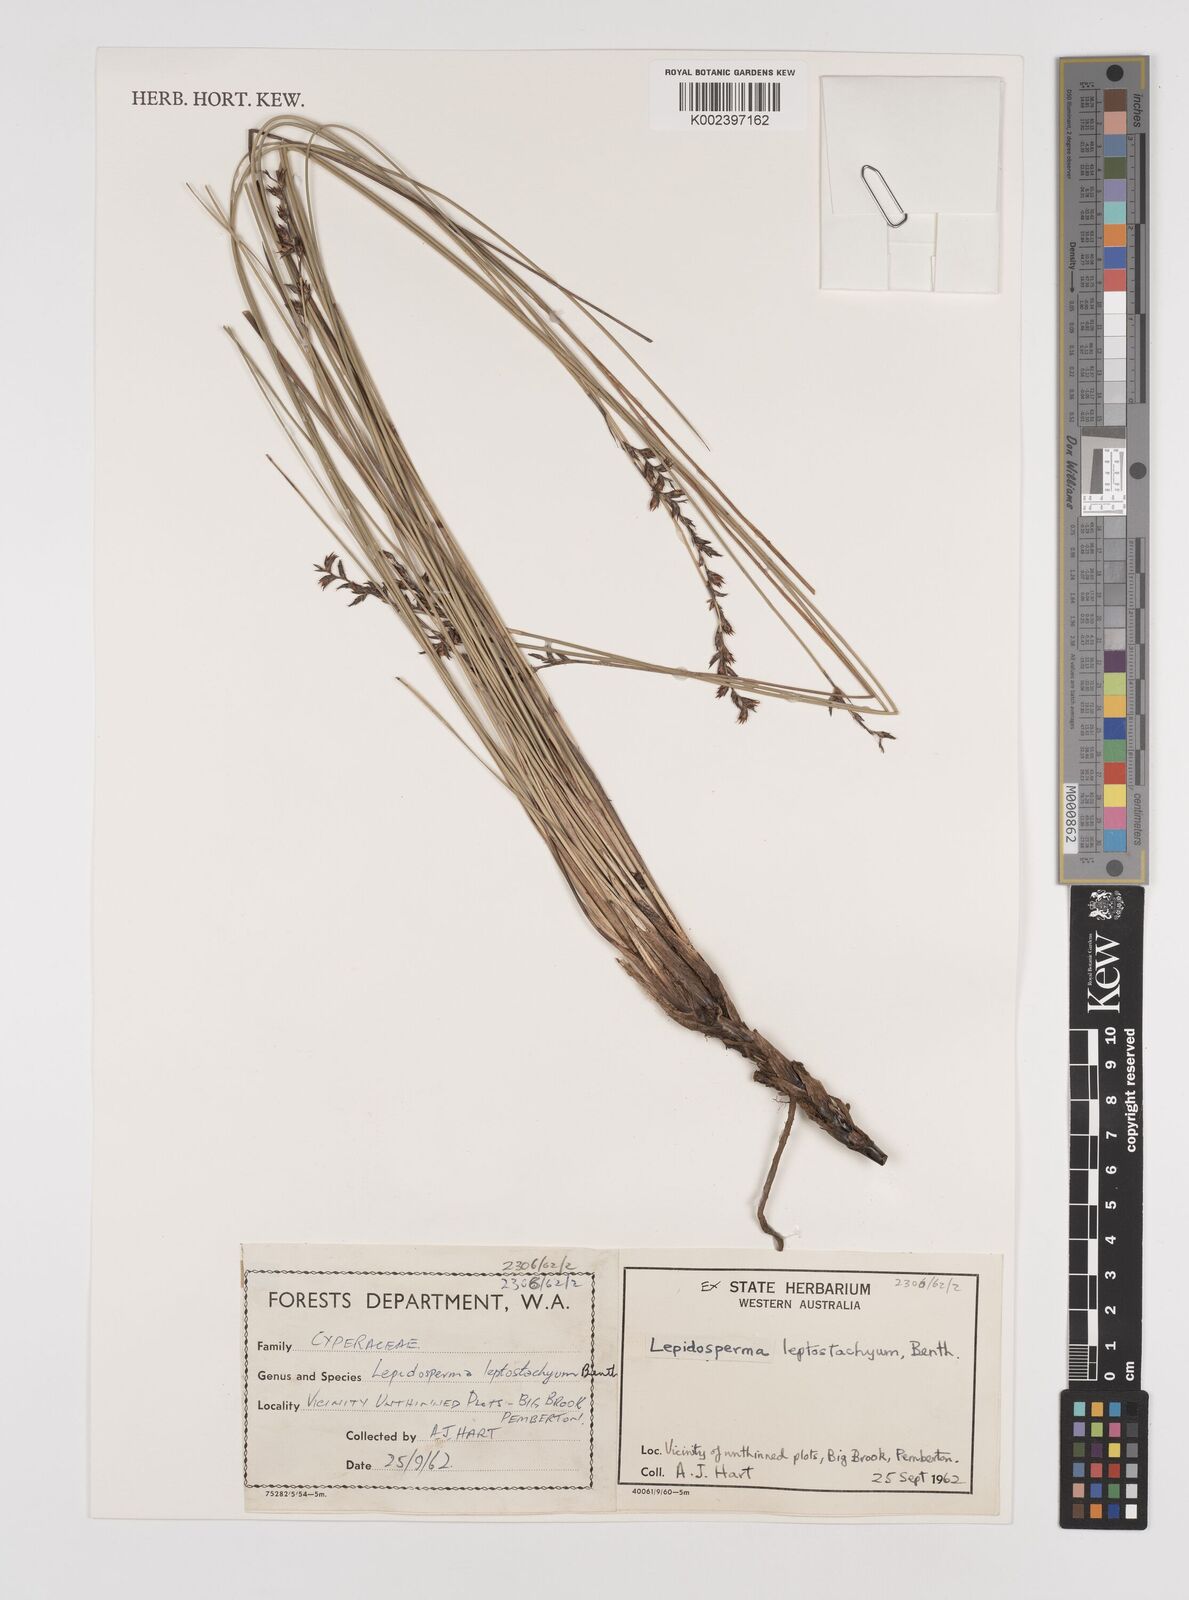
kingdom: Plantae
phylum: Tracheophyta
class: Liliopsida
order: Poales
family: Cyperaceae
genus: Lepidosperma
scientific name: Lepidosperma leptostachyum
